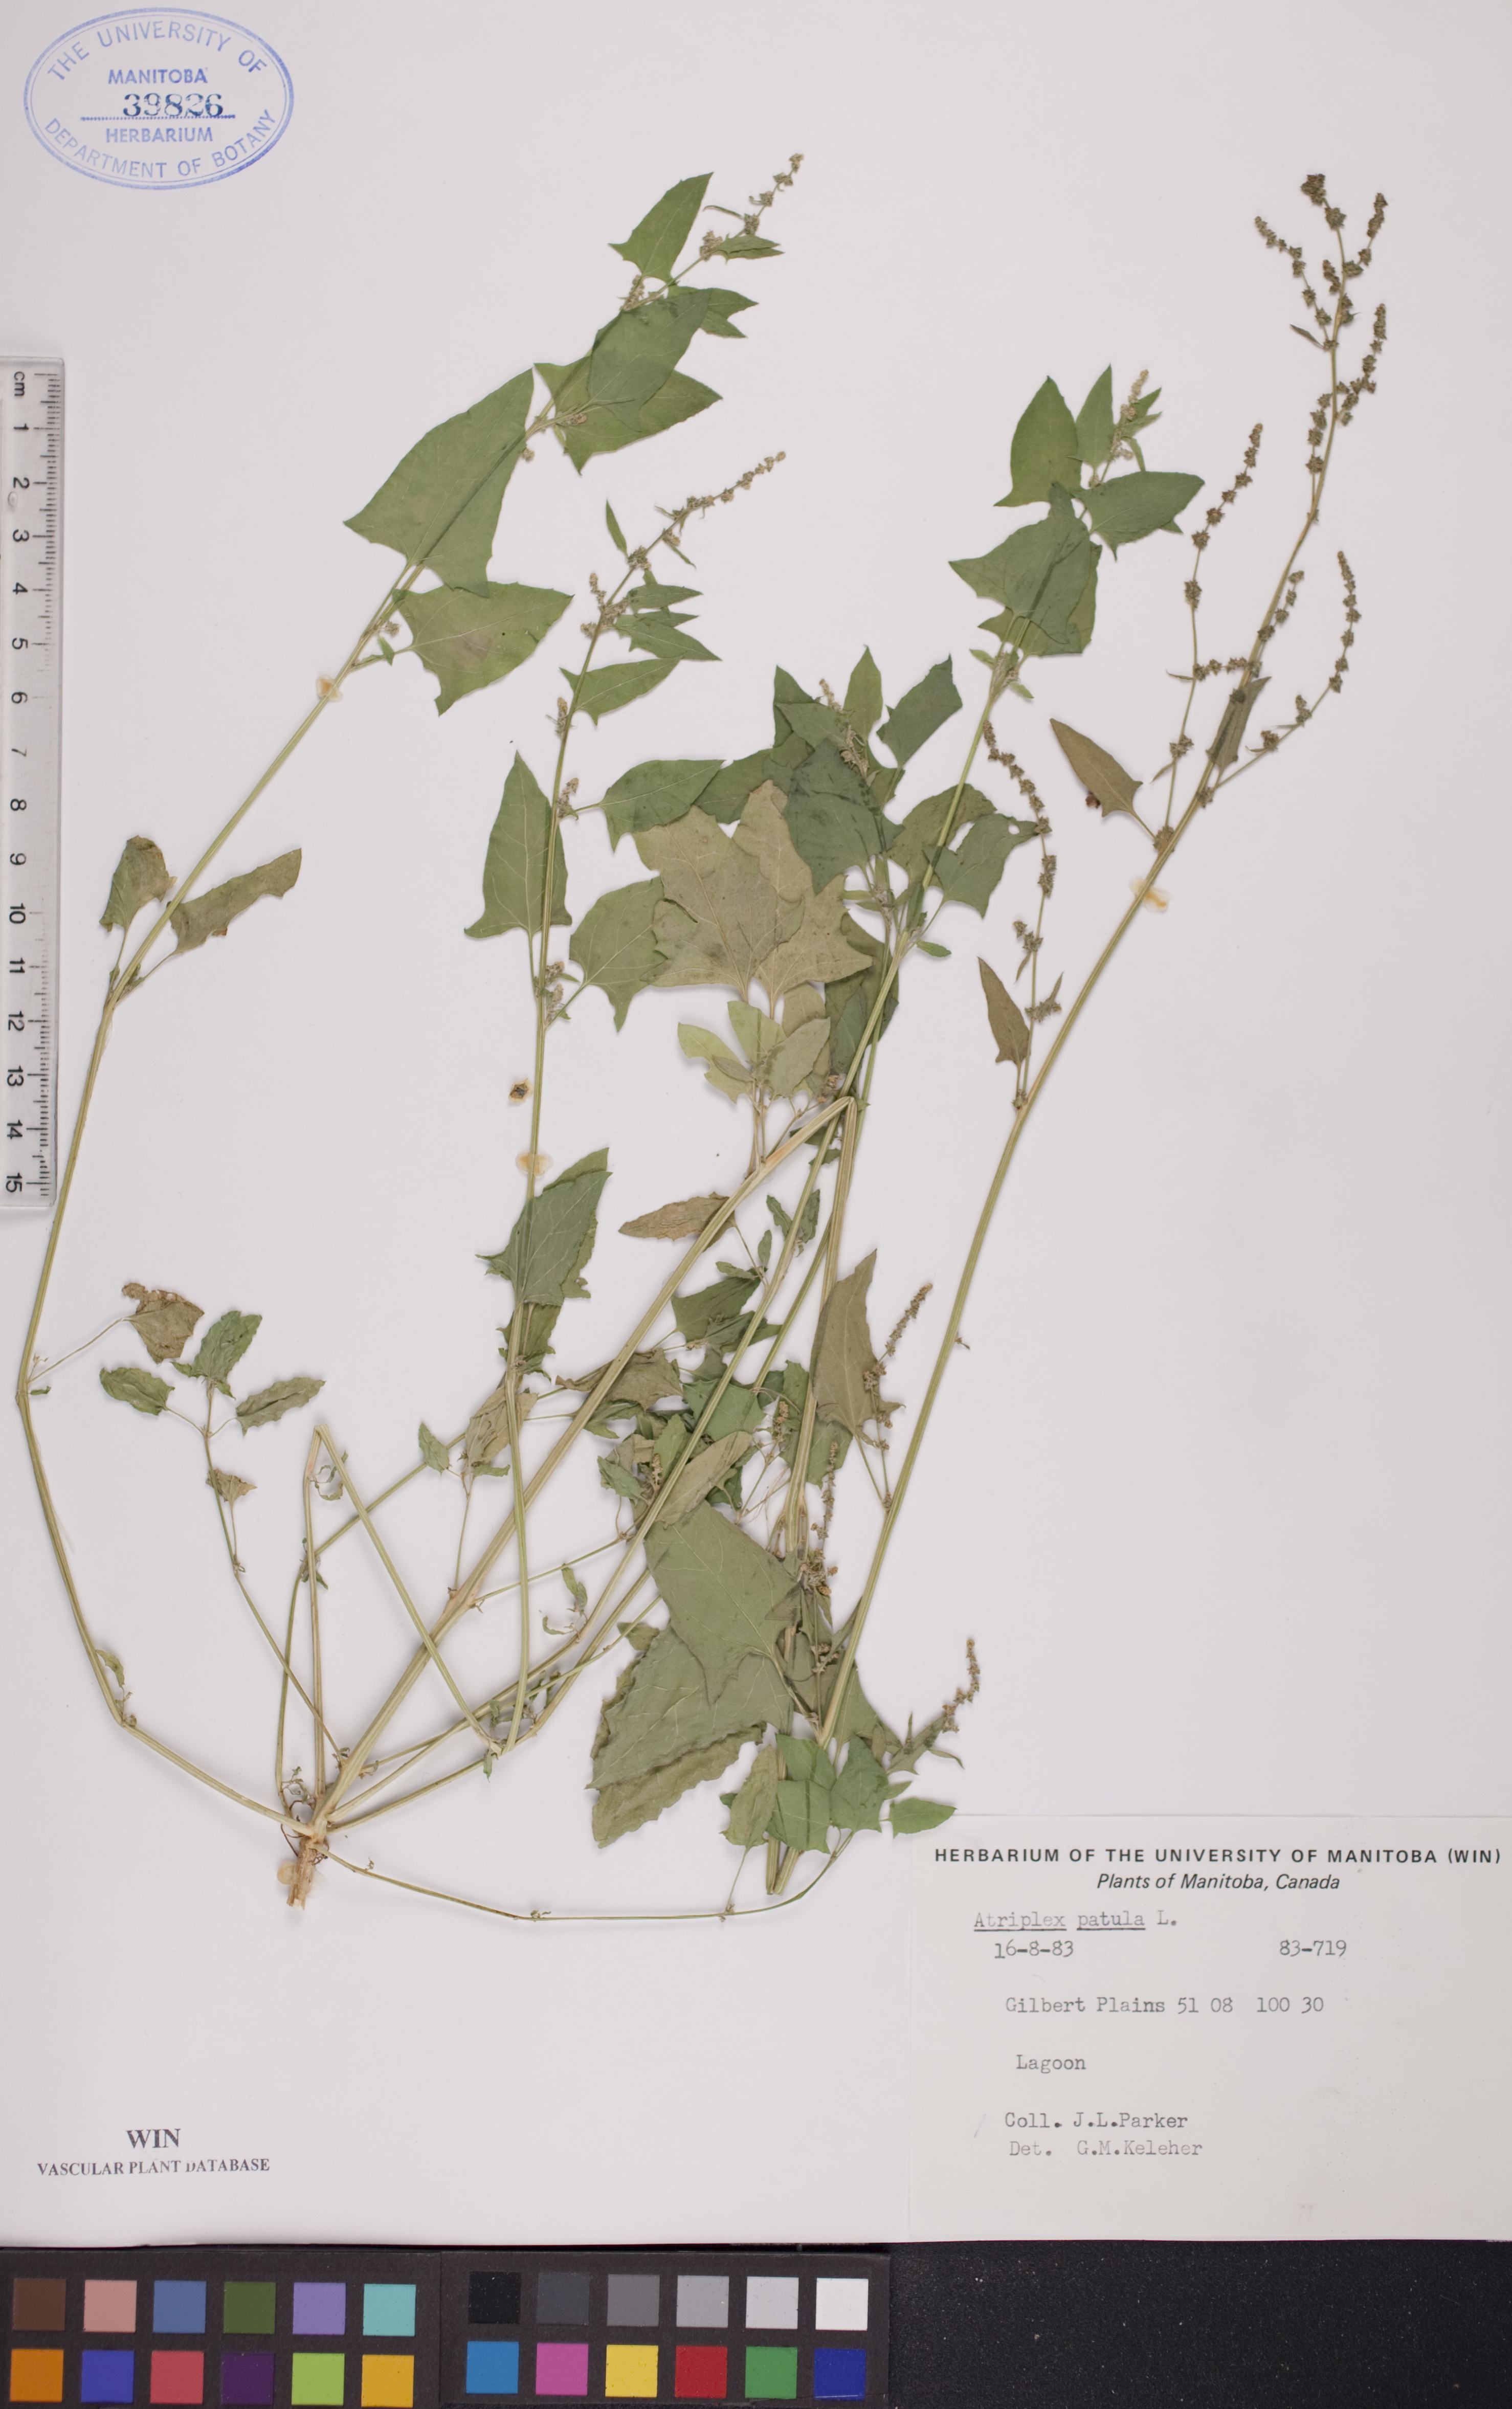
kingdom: Plantae
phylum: Tracheophyta
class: Magnoliopsida
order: Caryophyllales
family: Amaranthaceae
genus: Atriplex
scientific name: Atriplex patula
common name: Common orache
